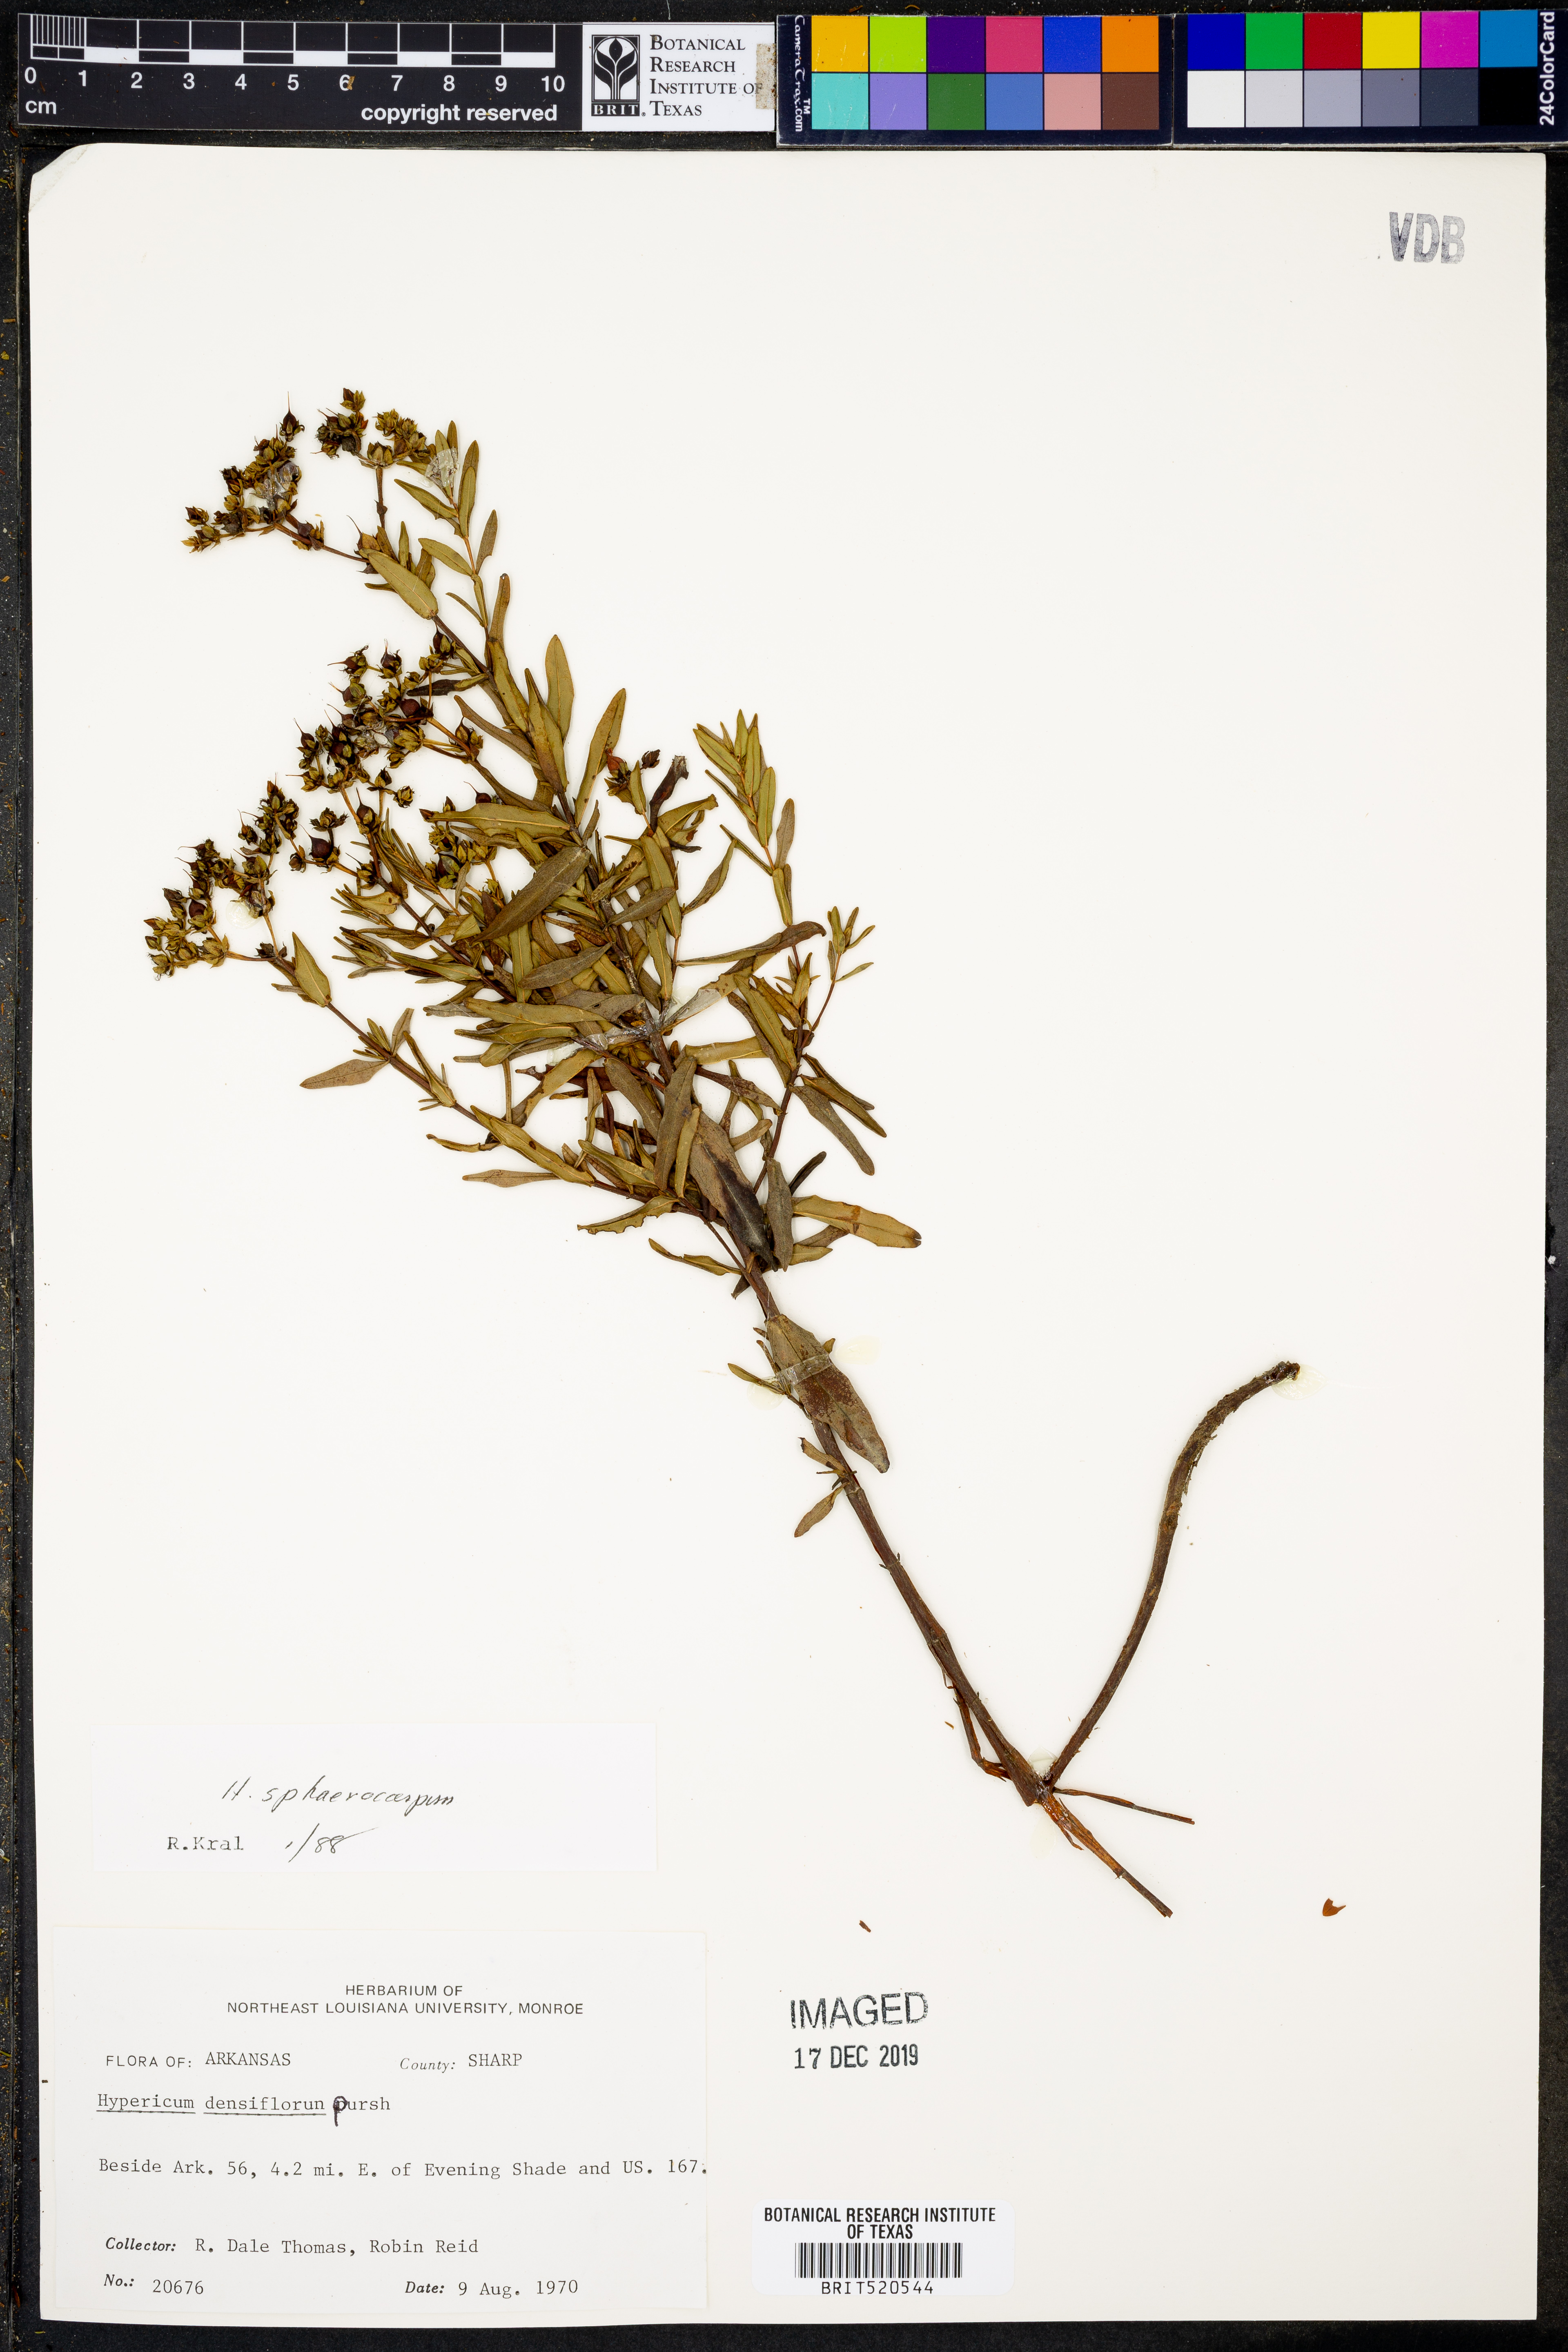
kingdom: Plantae
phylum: Tracheophyta
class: Magnoliopsida
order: Malpighiales
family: Hypericaceae
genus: Hypericum
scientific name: Hypericum sphaerocarpum
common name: Round-fruited st. john's-wort
